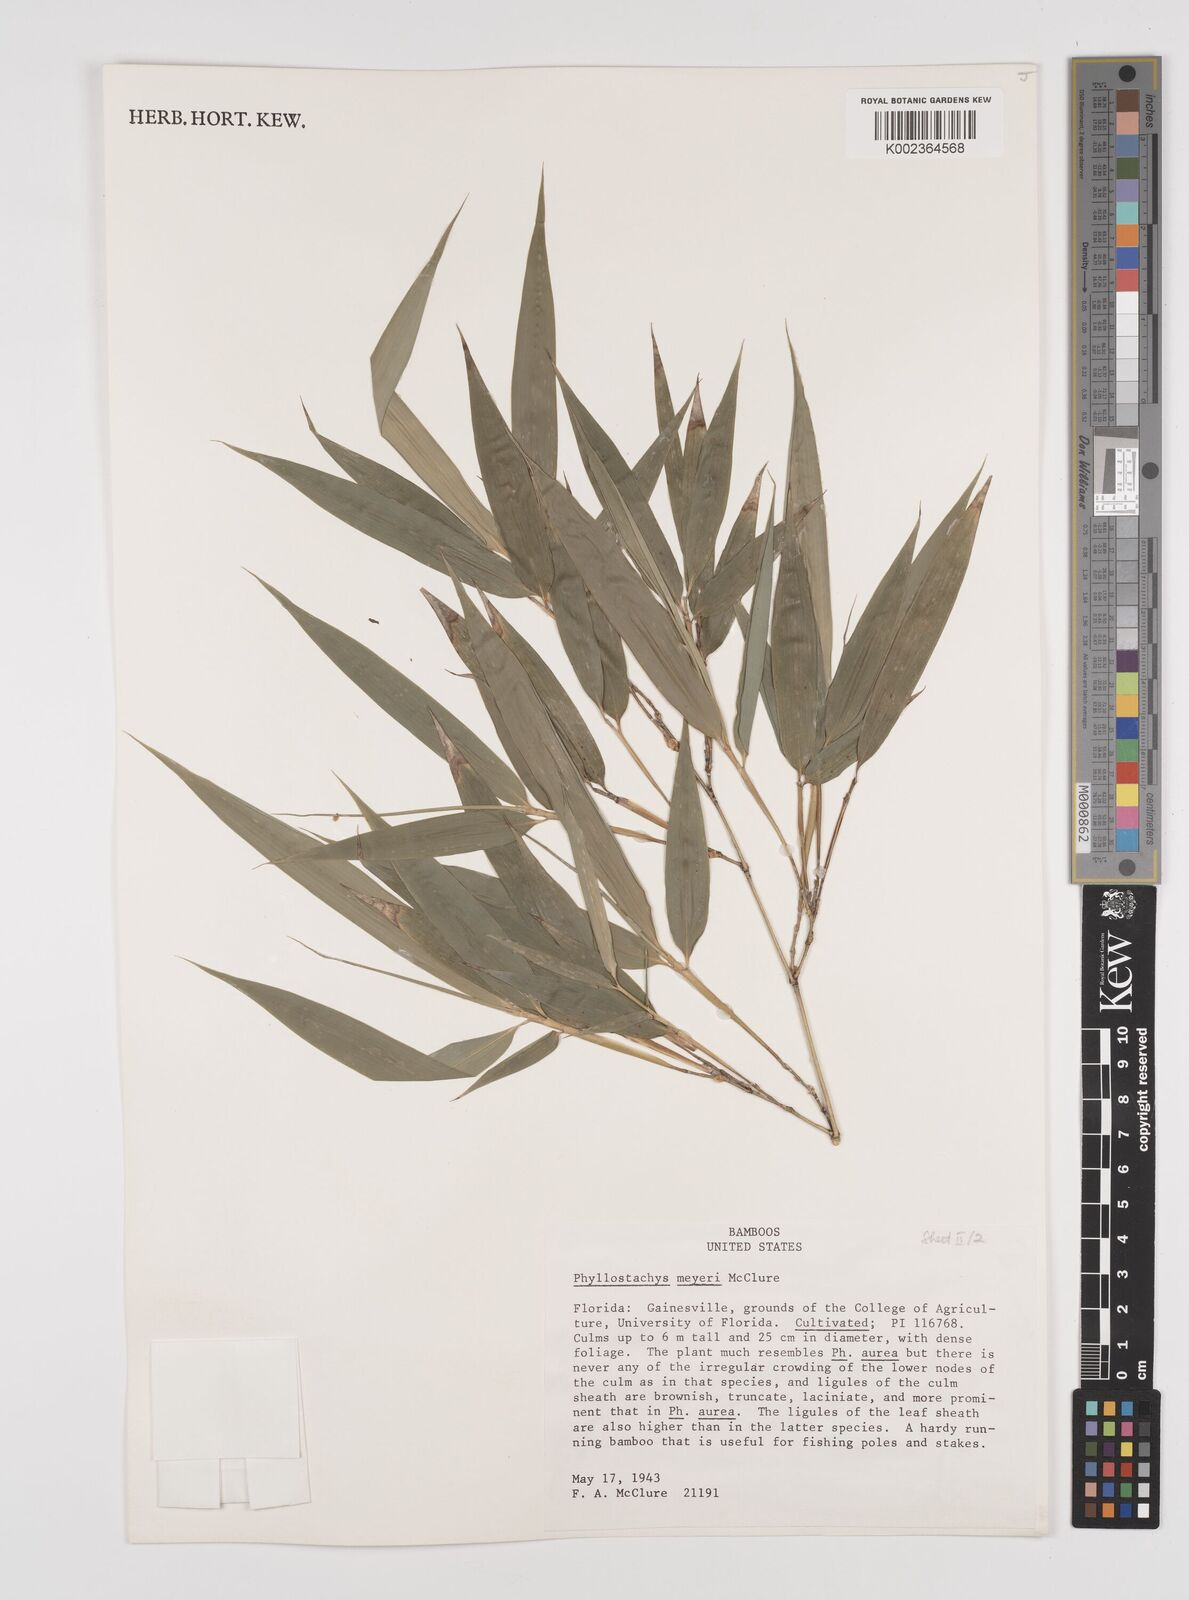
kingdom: Plantae
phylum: Tracheophyta
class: Liliopsida
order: Poales
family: Poaceae
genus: Phyllostachys
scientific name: Phyllostachys meyeri
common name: Meyer's bamboo
